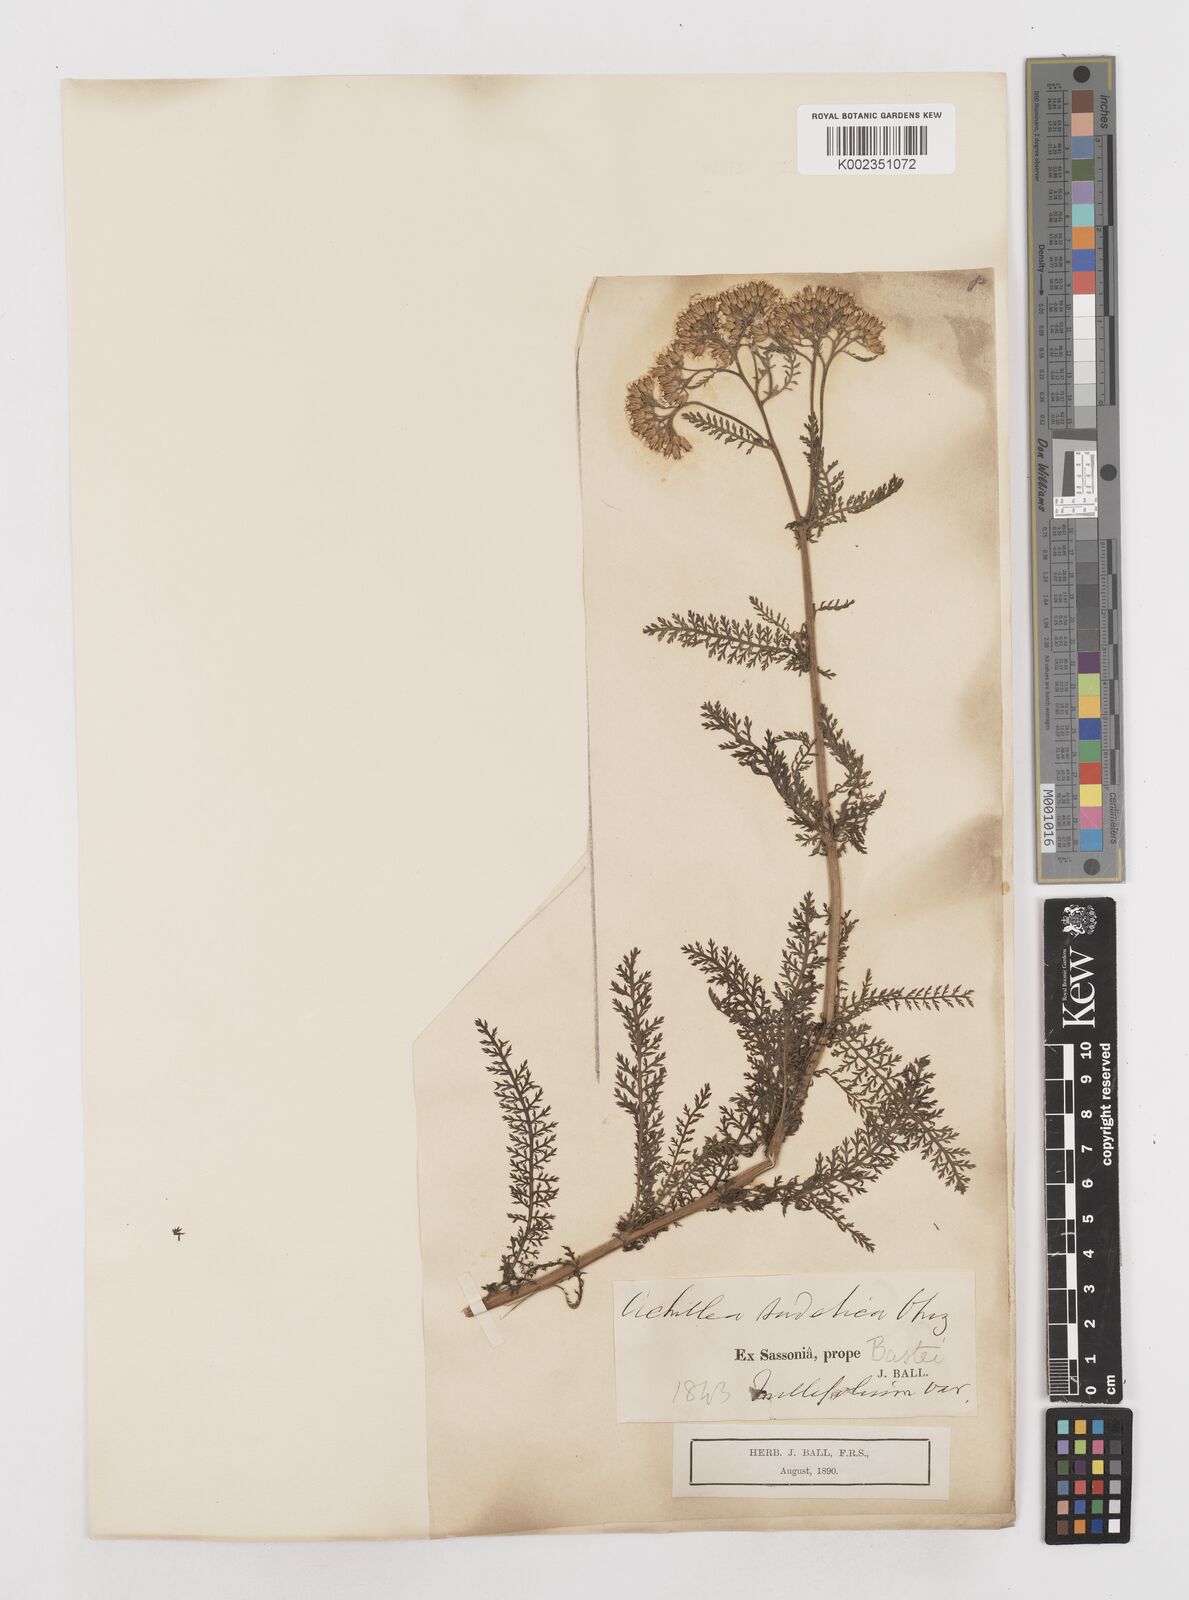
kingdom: Plantae
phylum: Tracheophyta
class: Magnoliopsida
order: Asterales
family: Asteraceae
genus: Achillea
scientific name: Achillea ceretanica
